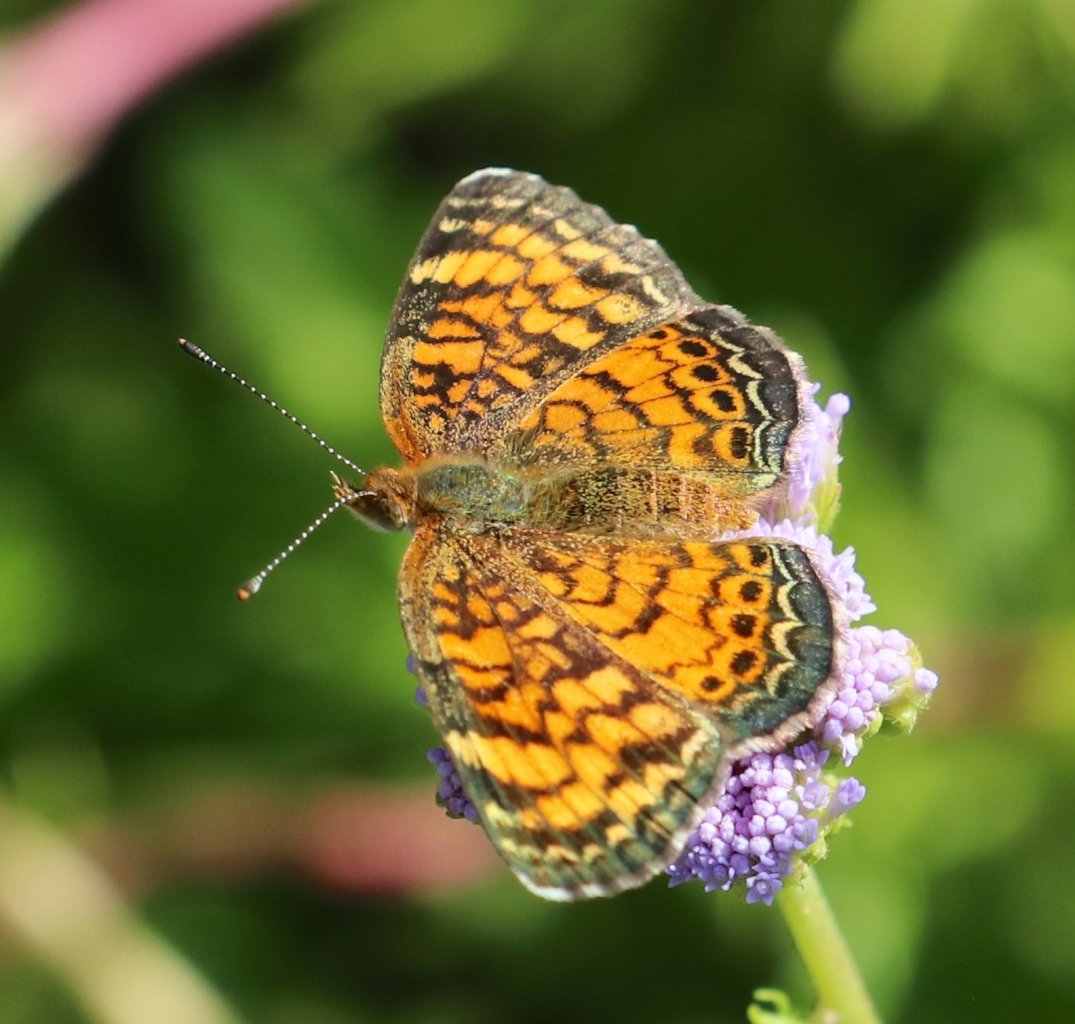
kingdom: Animalia
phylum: Arthropoda
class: Insecta
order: Lepidoptera
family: Nymphalidae
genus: Phyciodes
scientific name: Phyciodes vesta
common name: Vesta Crescent
